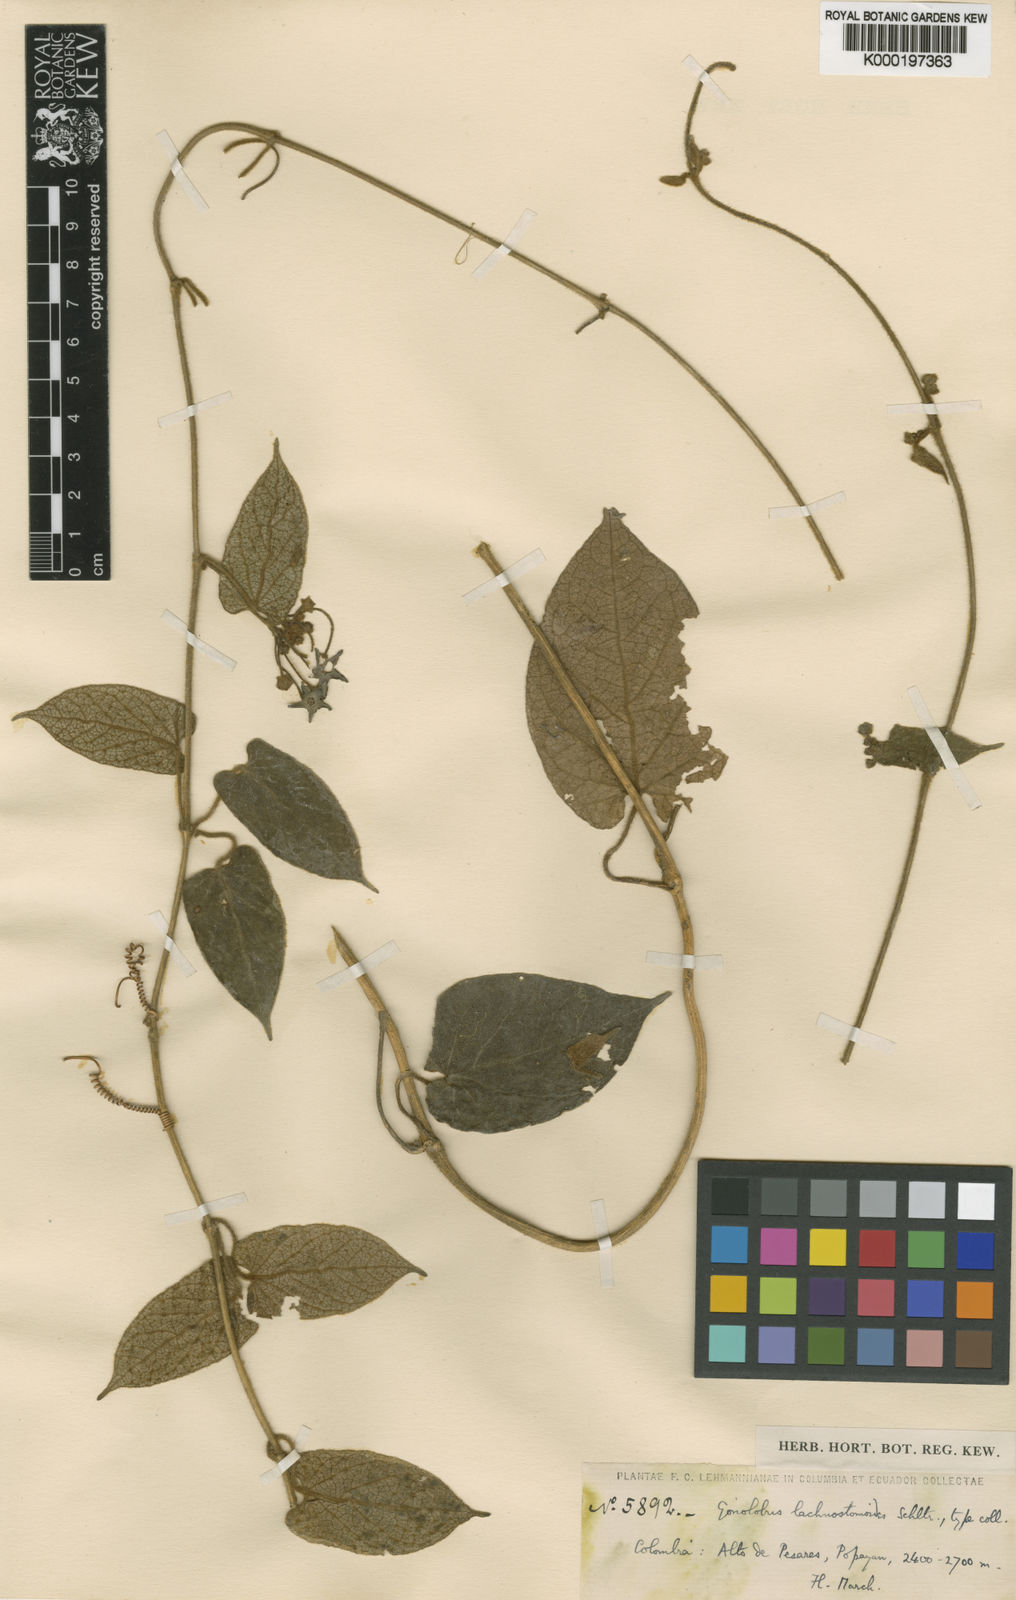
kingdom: Plantae
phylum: Tracheophyta
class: Magnoliopsida
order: Gentianales
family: Apocynaceae
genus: Gonolobus
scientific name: Gonolobus lachnostomoides
